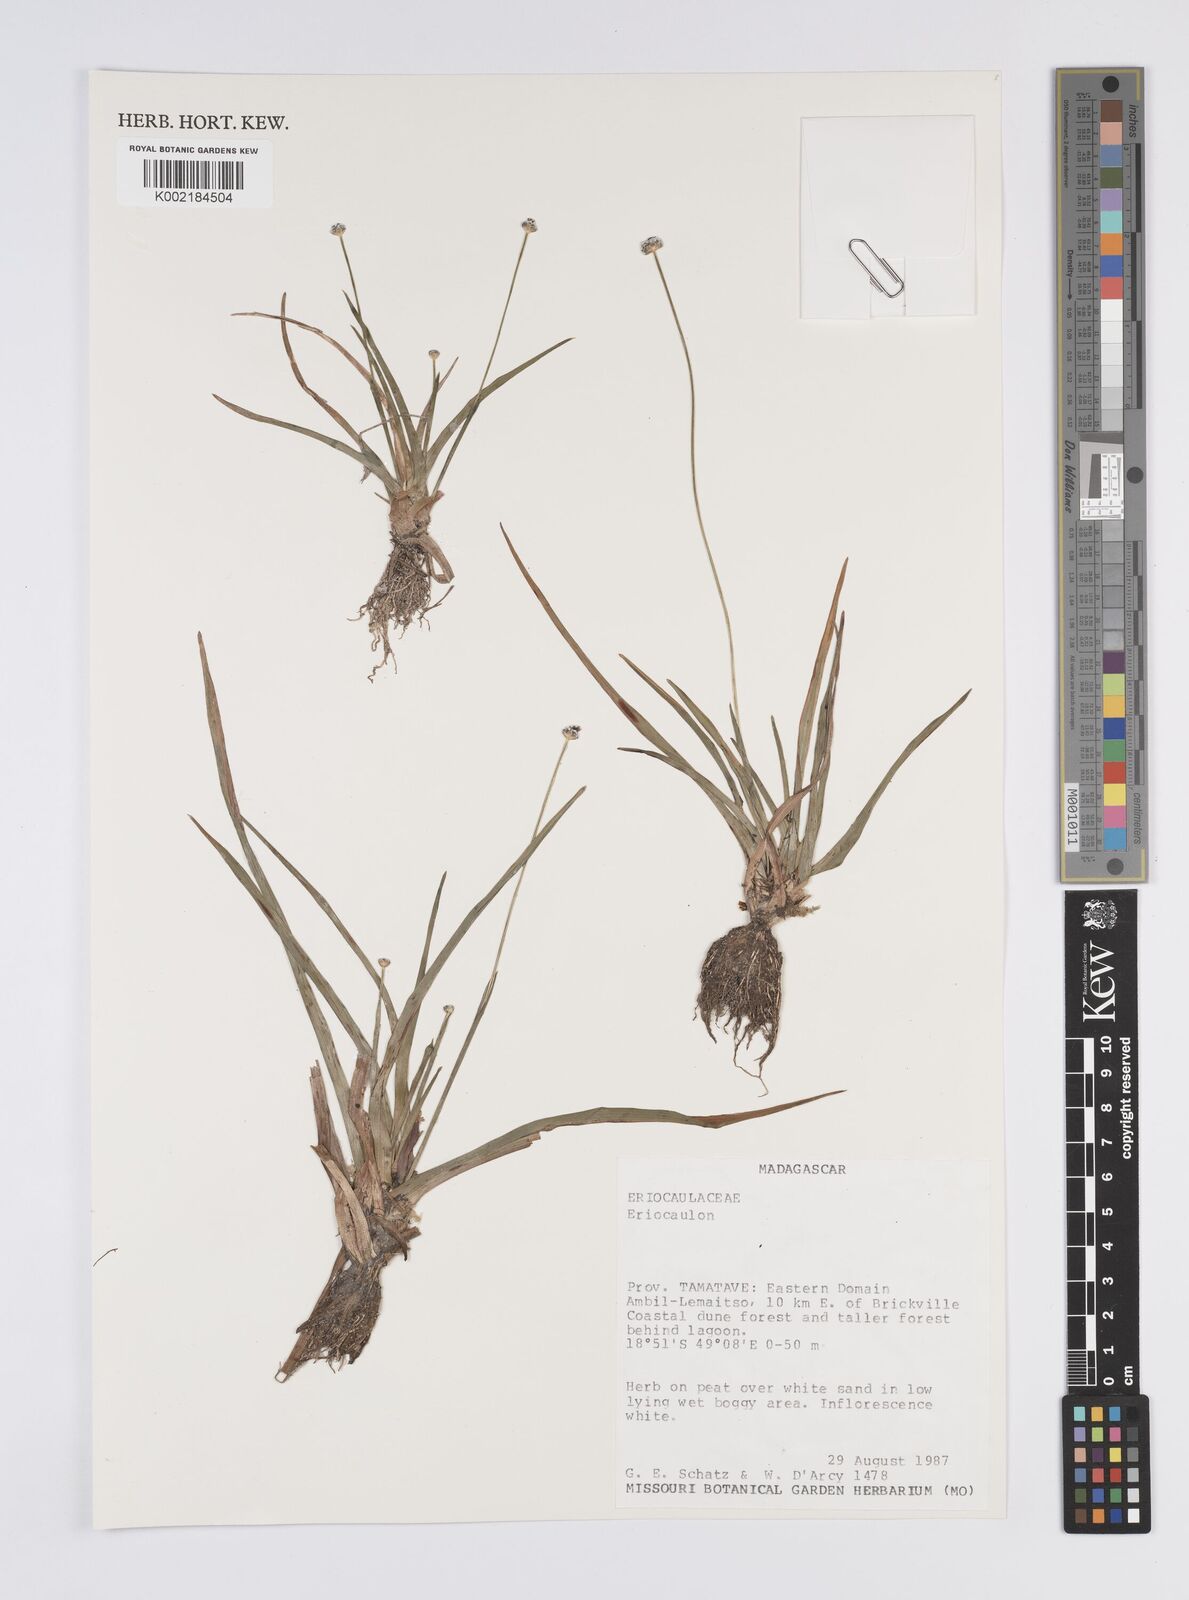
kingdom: Plantae
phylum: Tracheophyta
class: Liliopsida
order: Poales
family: Eriocaulaceae
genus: Eriocaulon
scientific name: Eriocaulon
